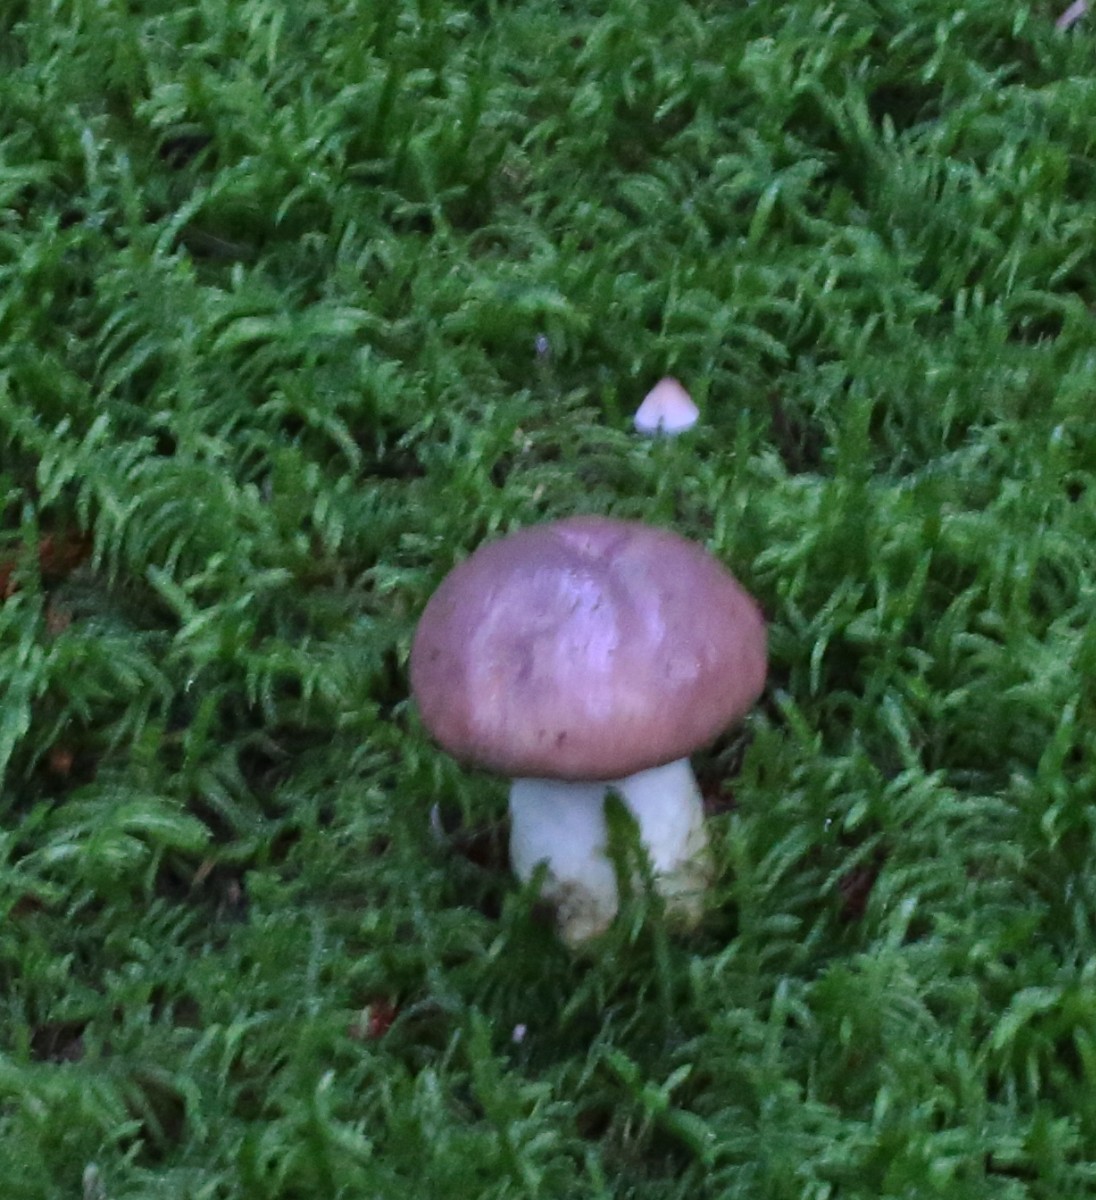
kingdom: Fungi
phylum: Basidiomycota
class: Agaricomycetes
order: Boletales
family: Gomphidiaceae
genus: Gomphidius
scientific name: Gomphidius glutinosus
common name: grå slimslør
